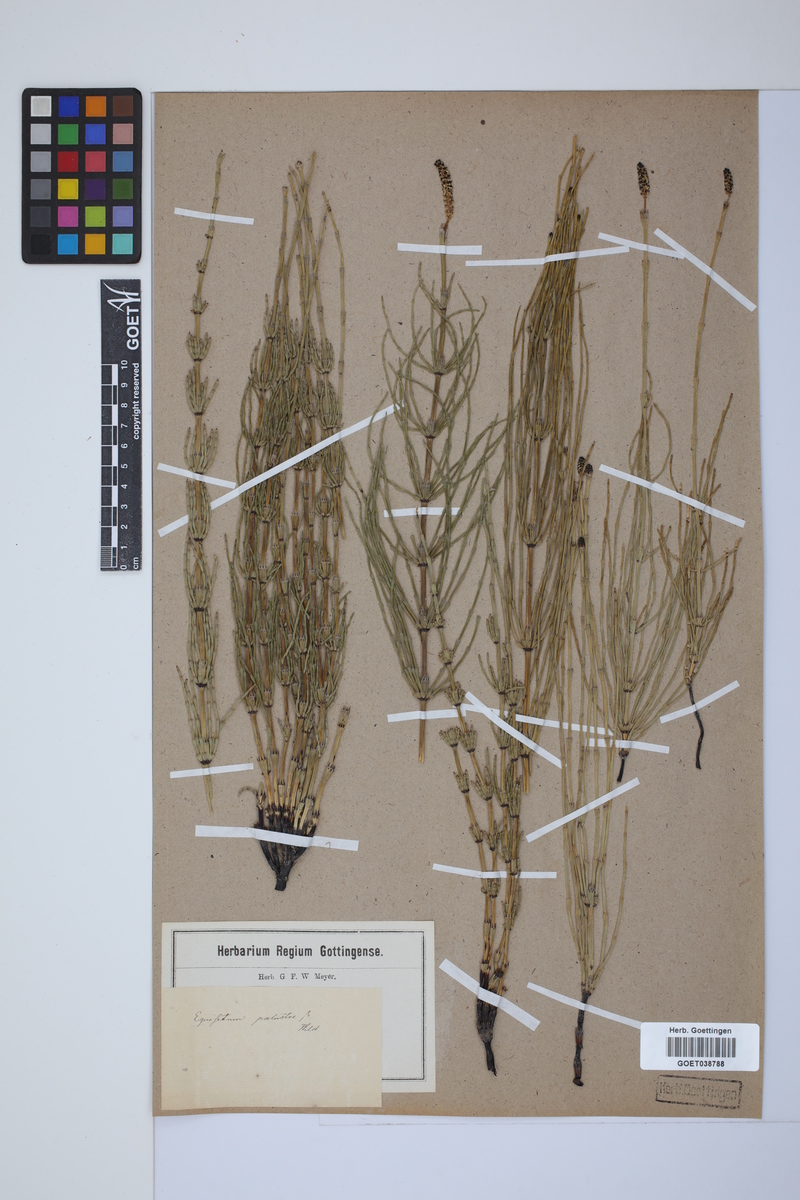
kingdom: Plantae
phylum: Tracheophyta
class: Polypodiopsida
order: Equisetales
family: Equisetaceae
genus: Equisetum
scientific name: Equisetum palustre
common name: Marsh horsetail
